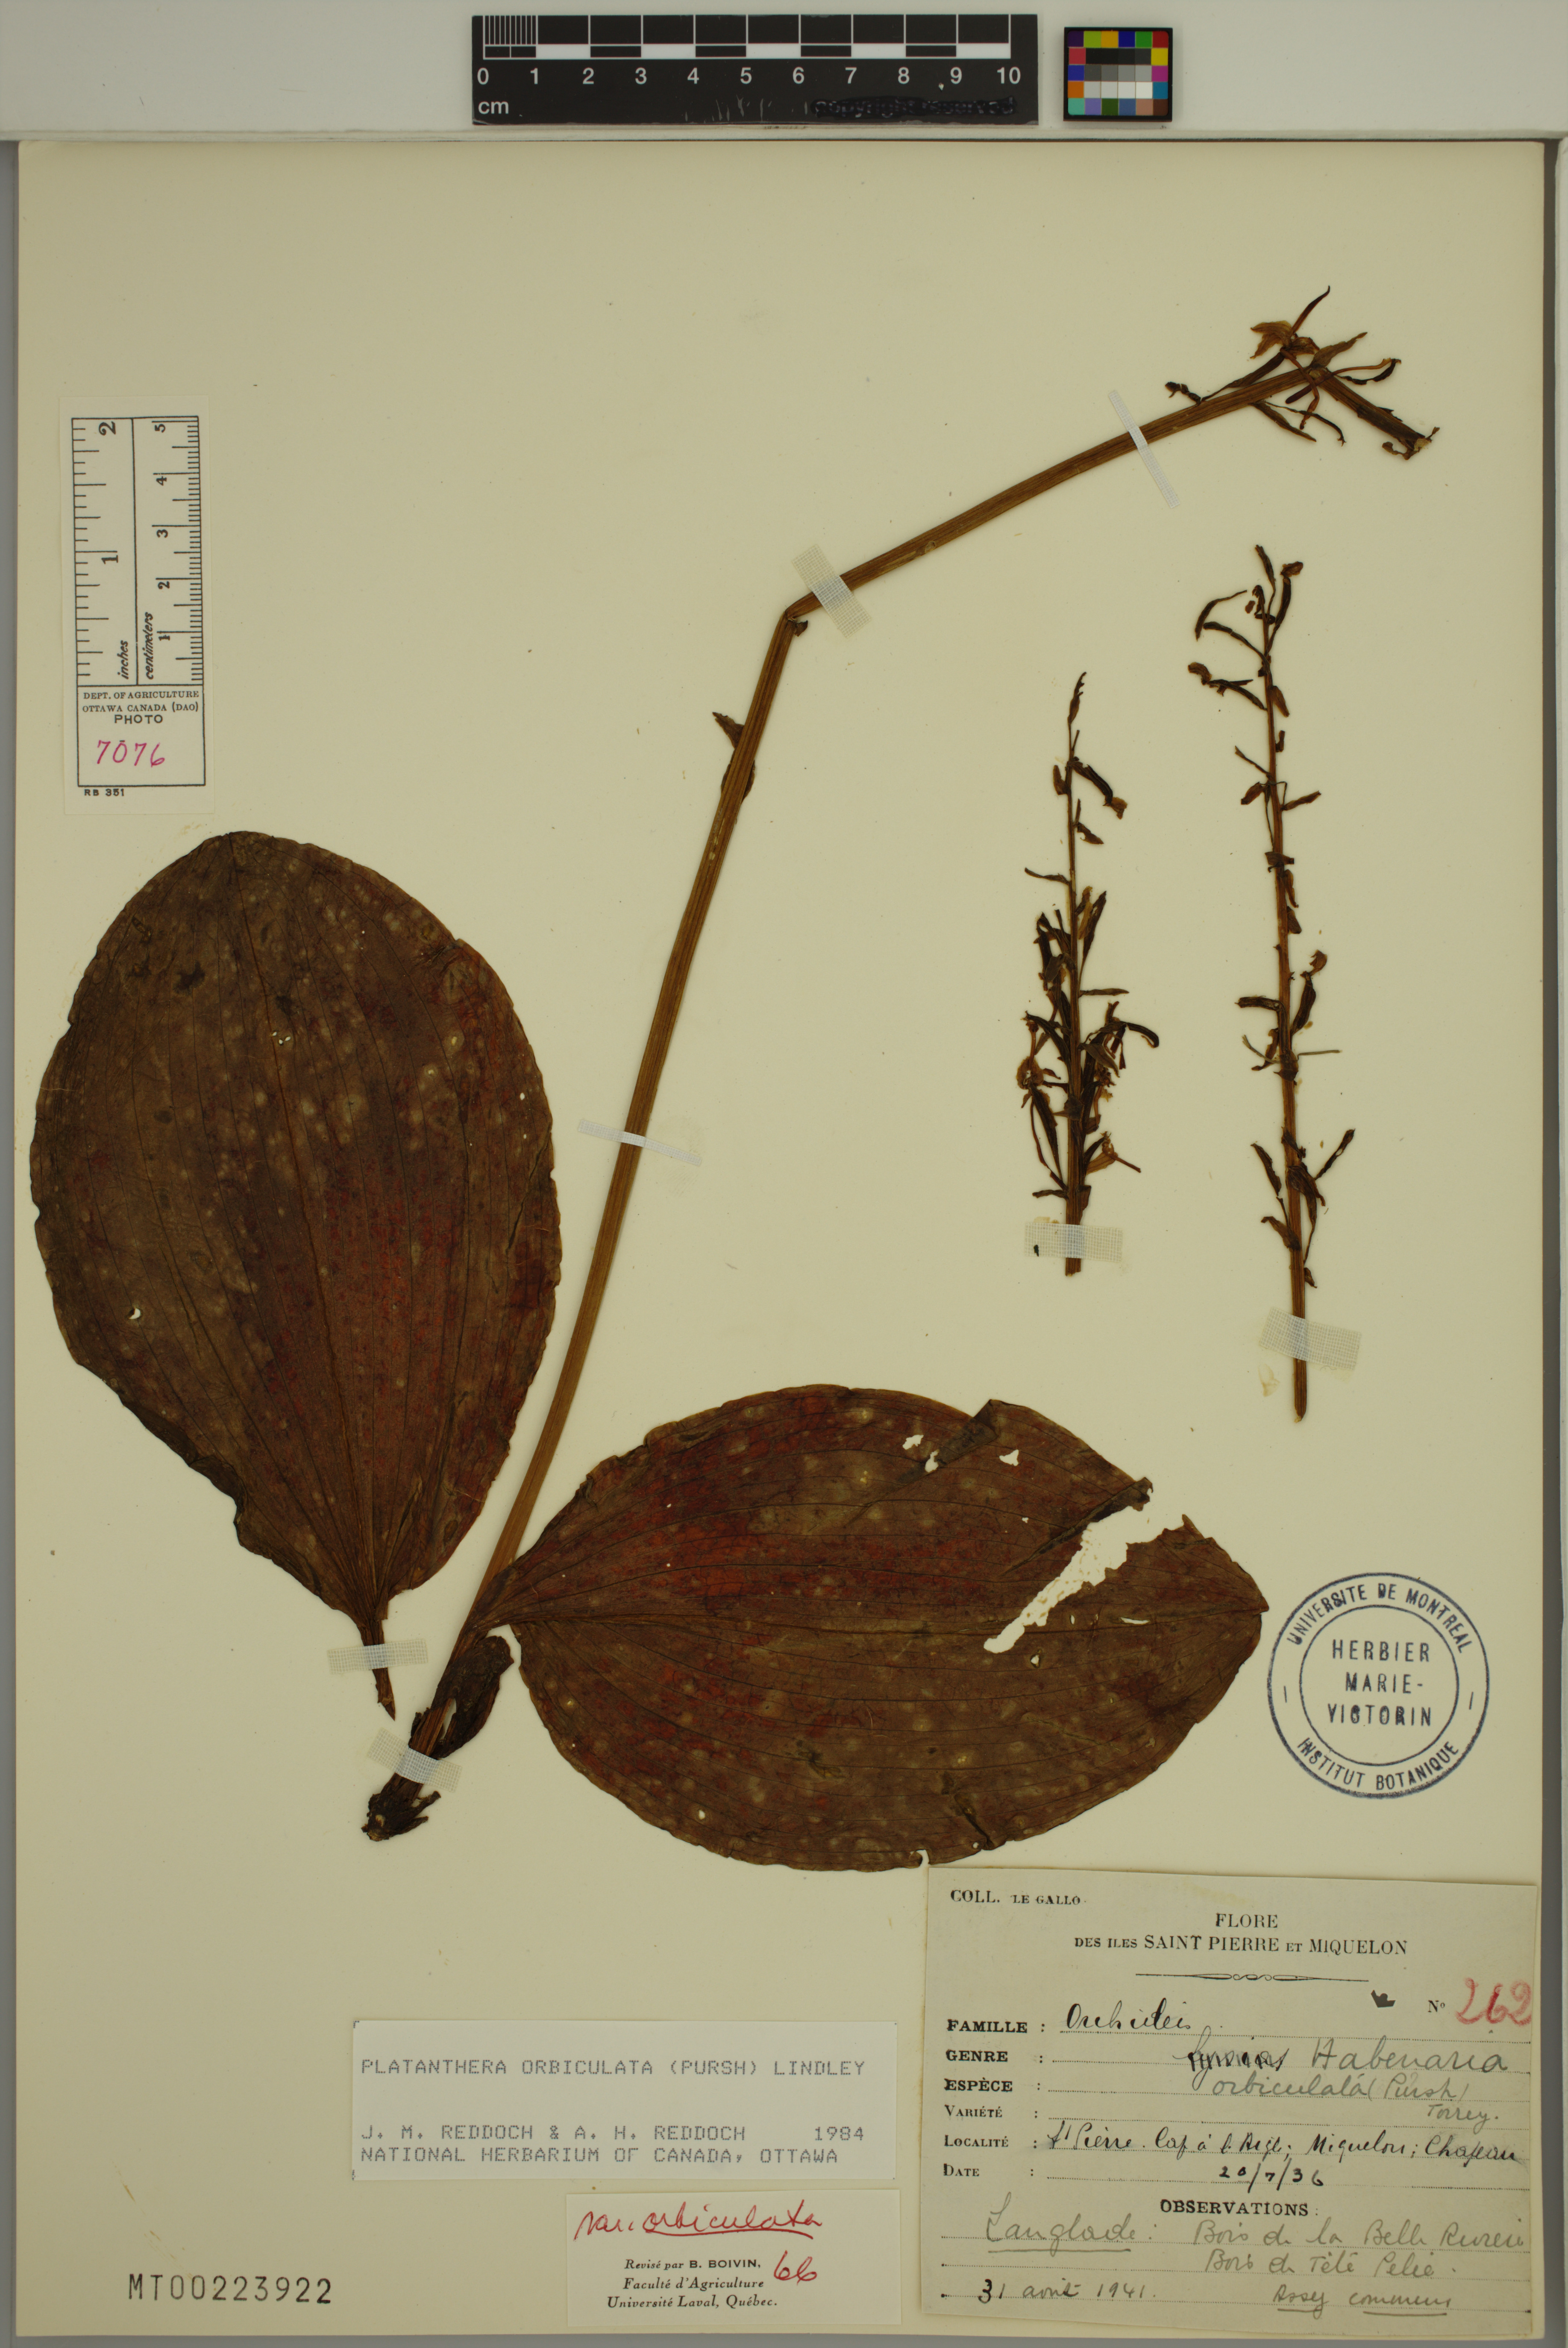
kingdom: Plantae
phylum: Tracheophyta
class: Liliopsida
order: Asparagales
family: Orchidaceae
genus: Platanthera
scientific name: Platanthera orbiculata
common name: Large round-leaved orchid
